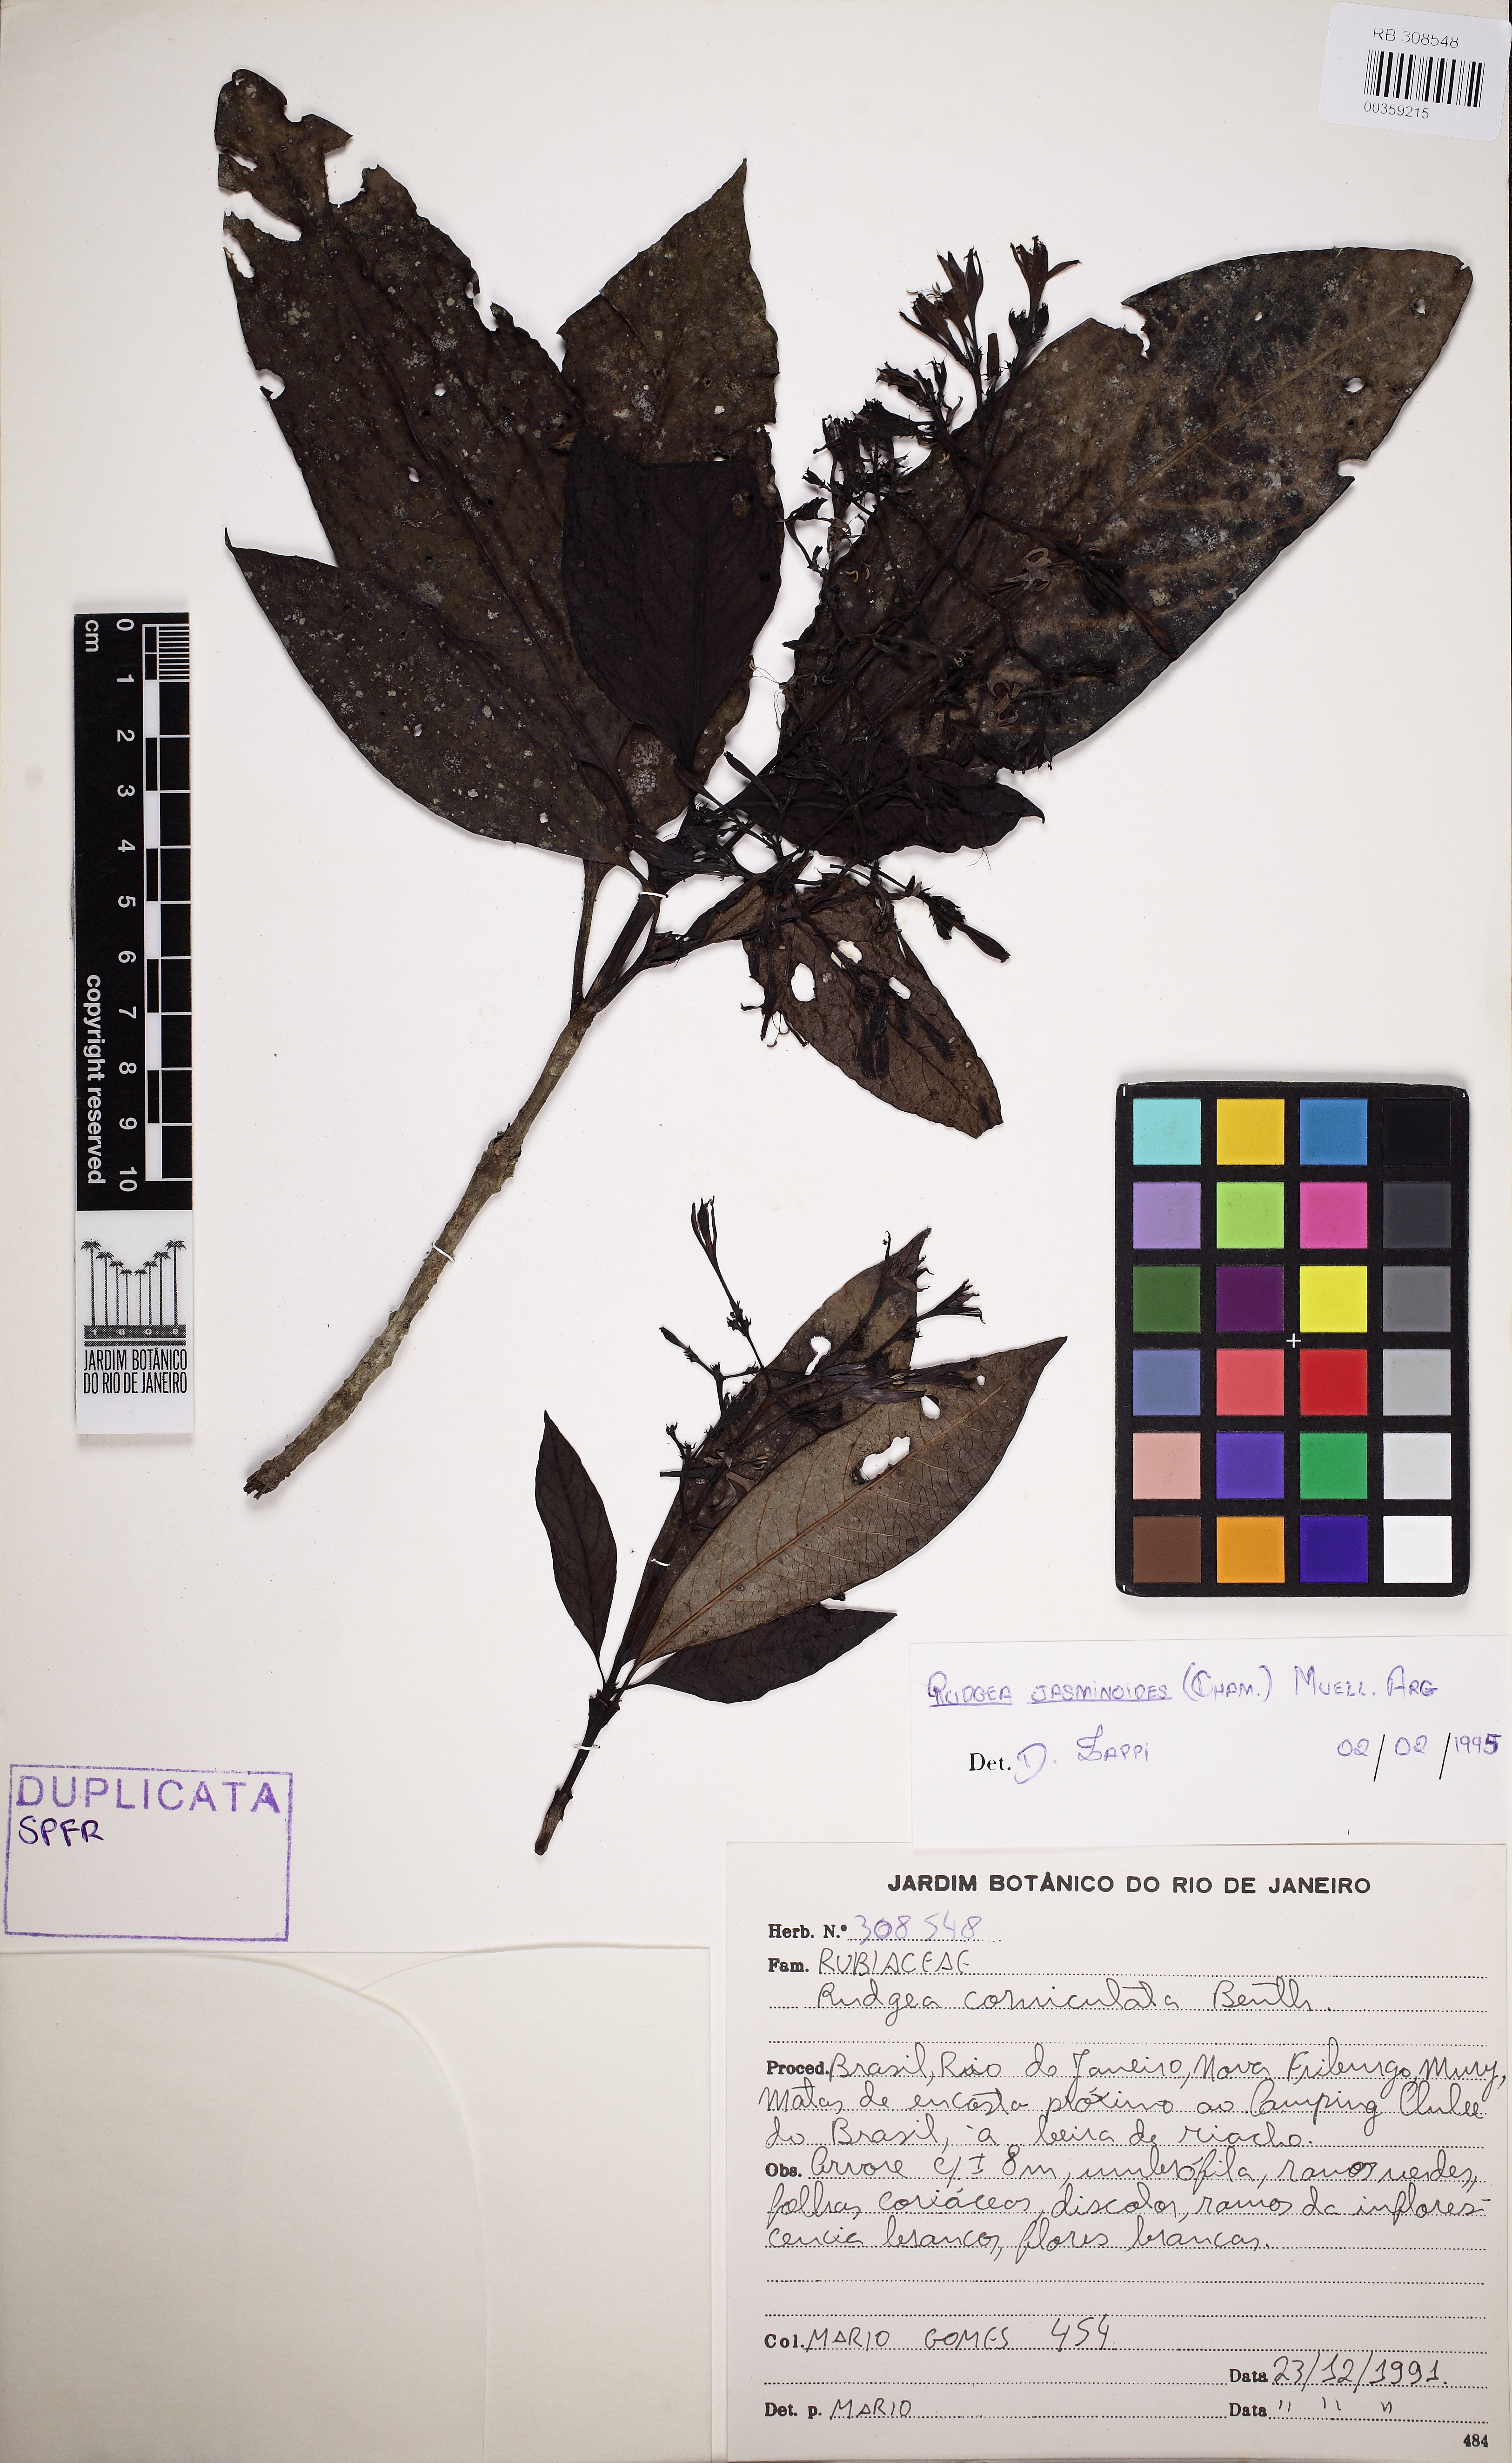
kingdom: Plantae
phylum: Tracheophyta
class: Magnoliopsida
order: Gentianales
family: Rubiaceae
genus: Rudgea
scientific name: Rudgea jasminoides
